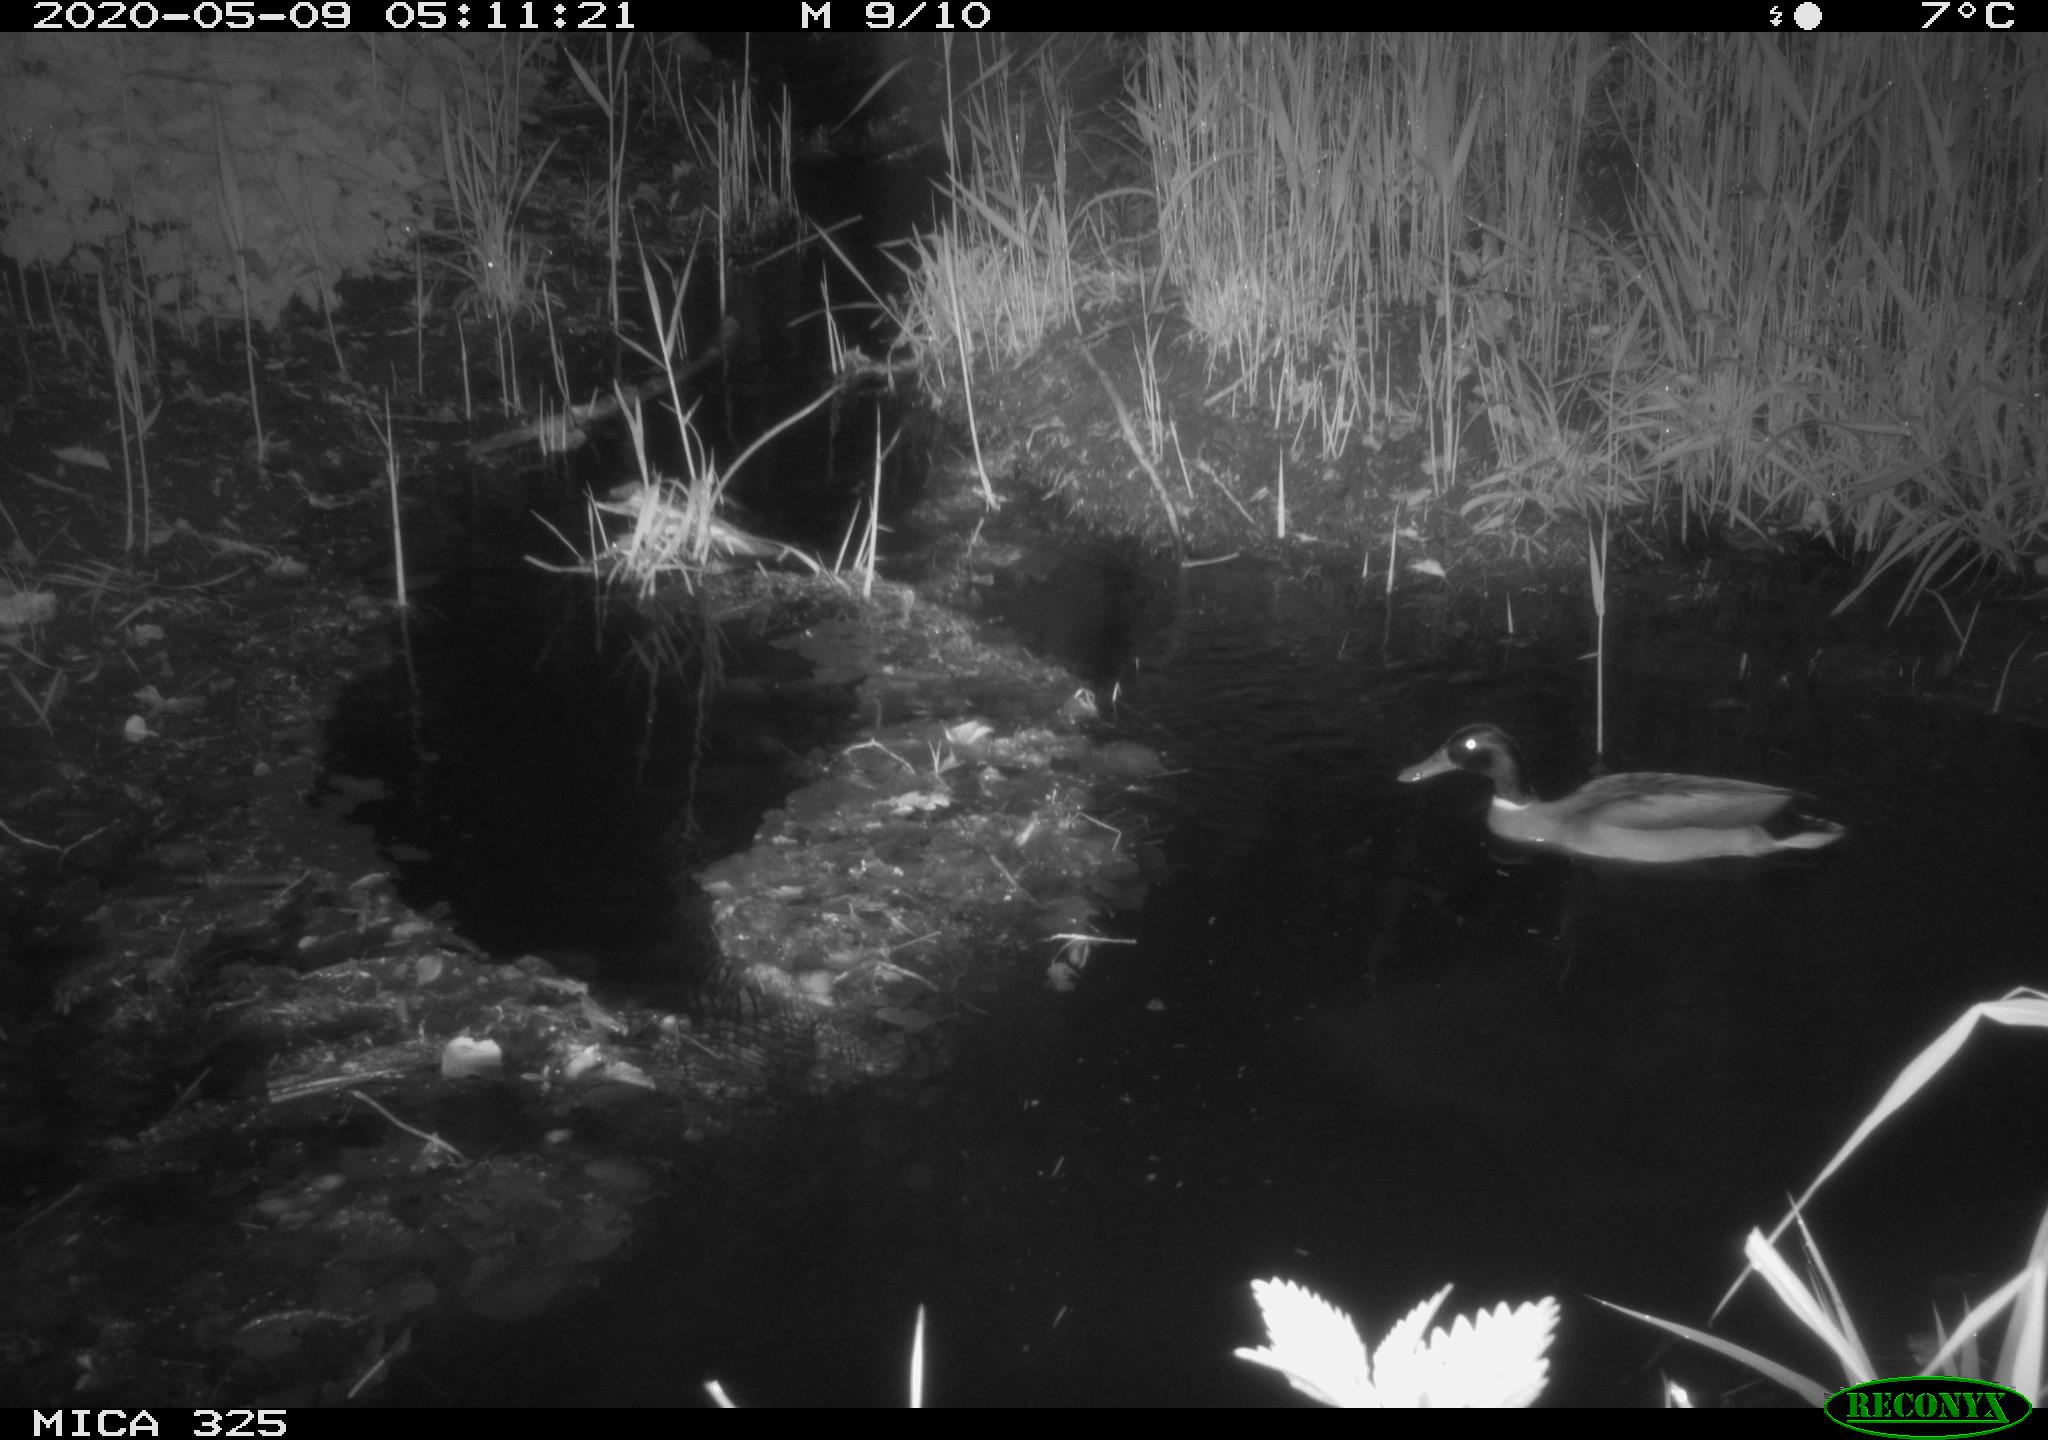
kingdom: Animalia
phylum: Chordata
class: Aves
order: Anseriformes
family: Anatidae
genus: Anas
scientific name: Anas platyrhynchos
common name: Mallard
